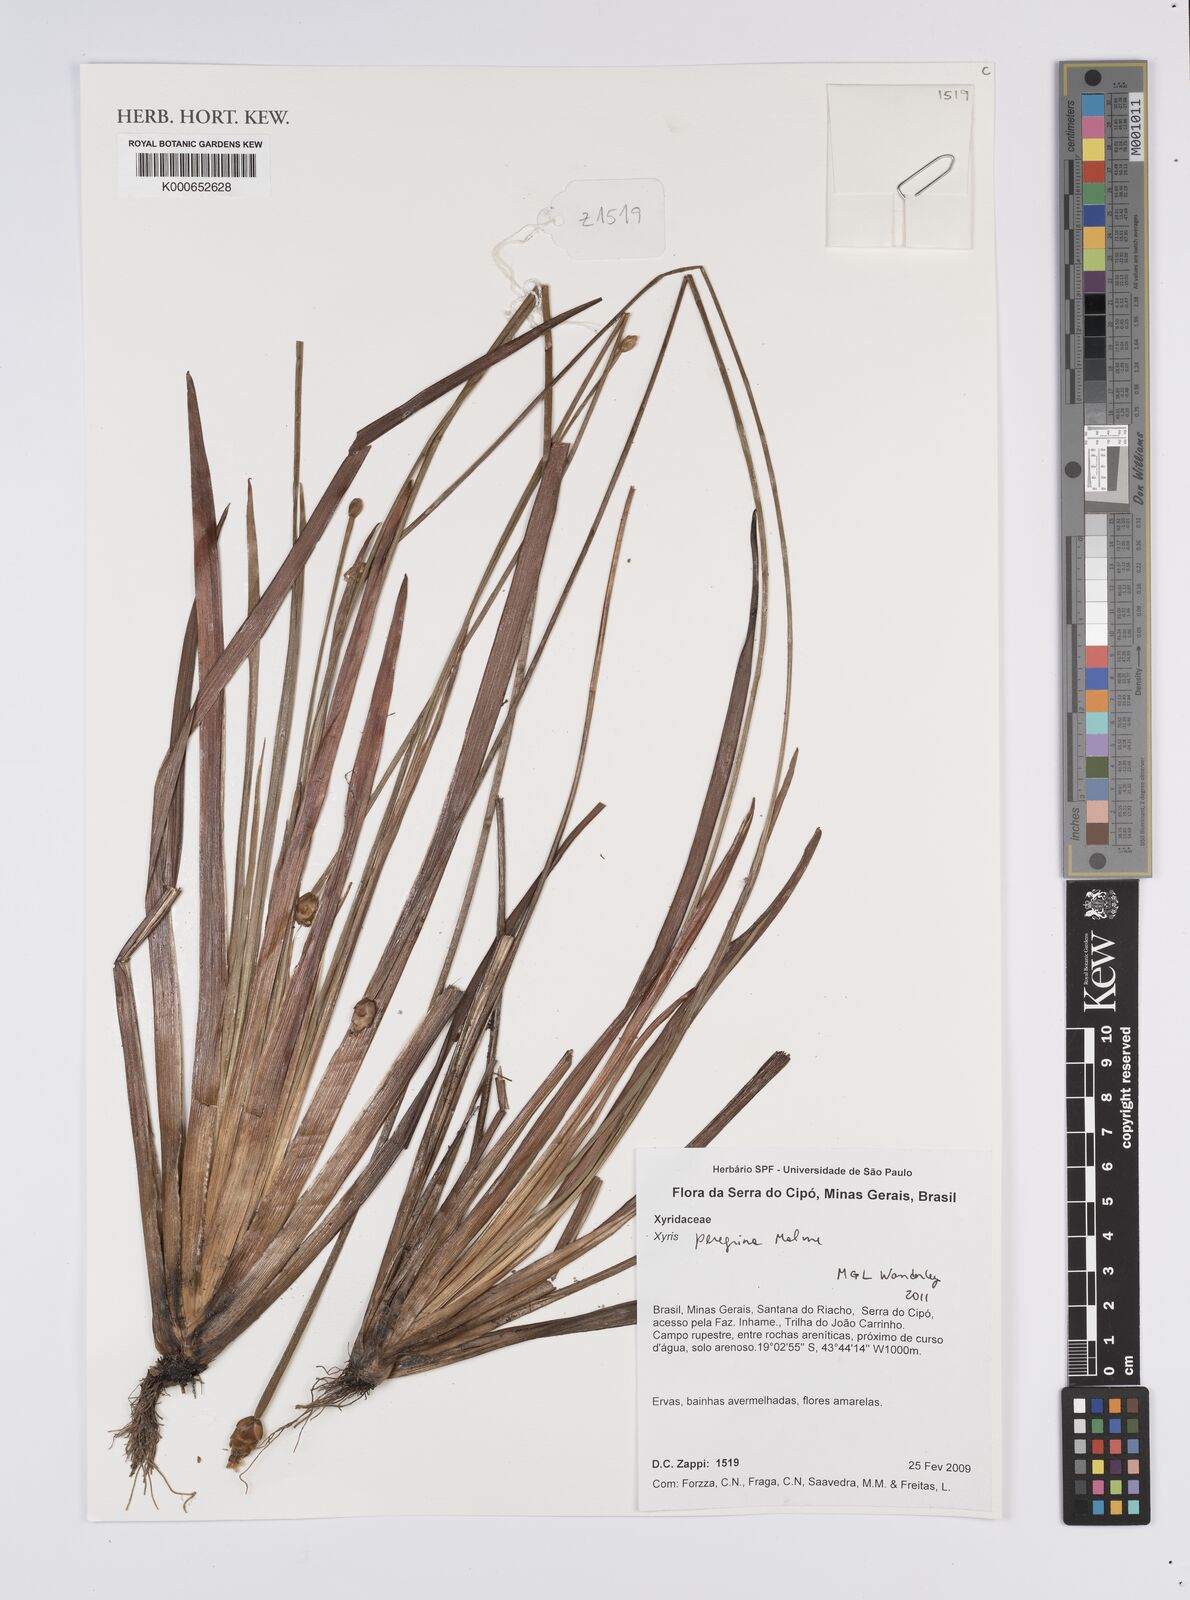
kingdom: Plantae
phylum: Tracheophyta
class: Liliopsida
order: Poales
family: Xyridaceae
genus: Xyris
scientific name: Xyris pterygoblephara
